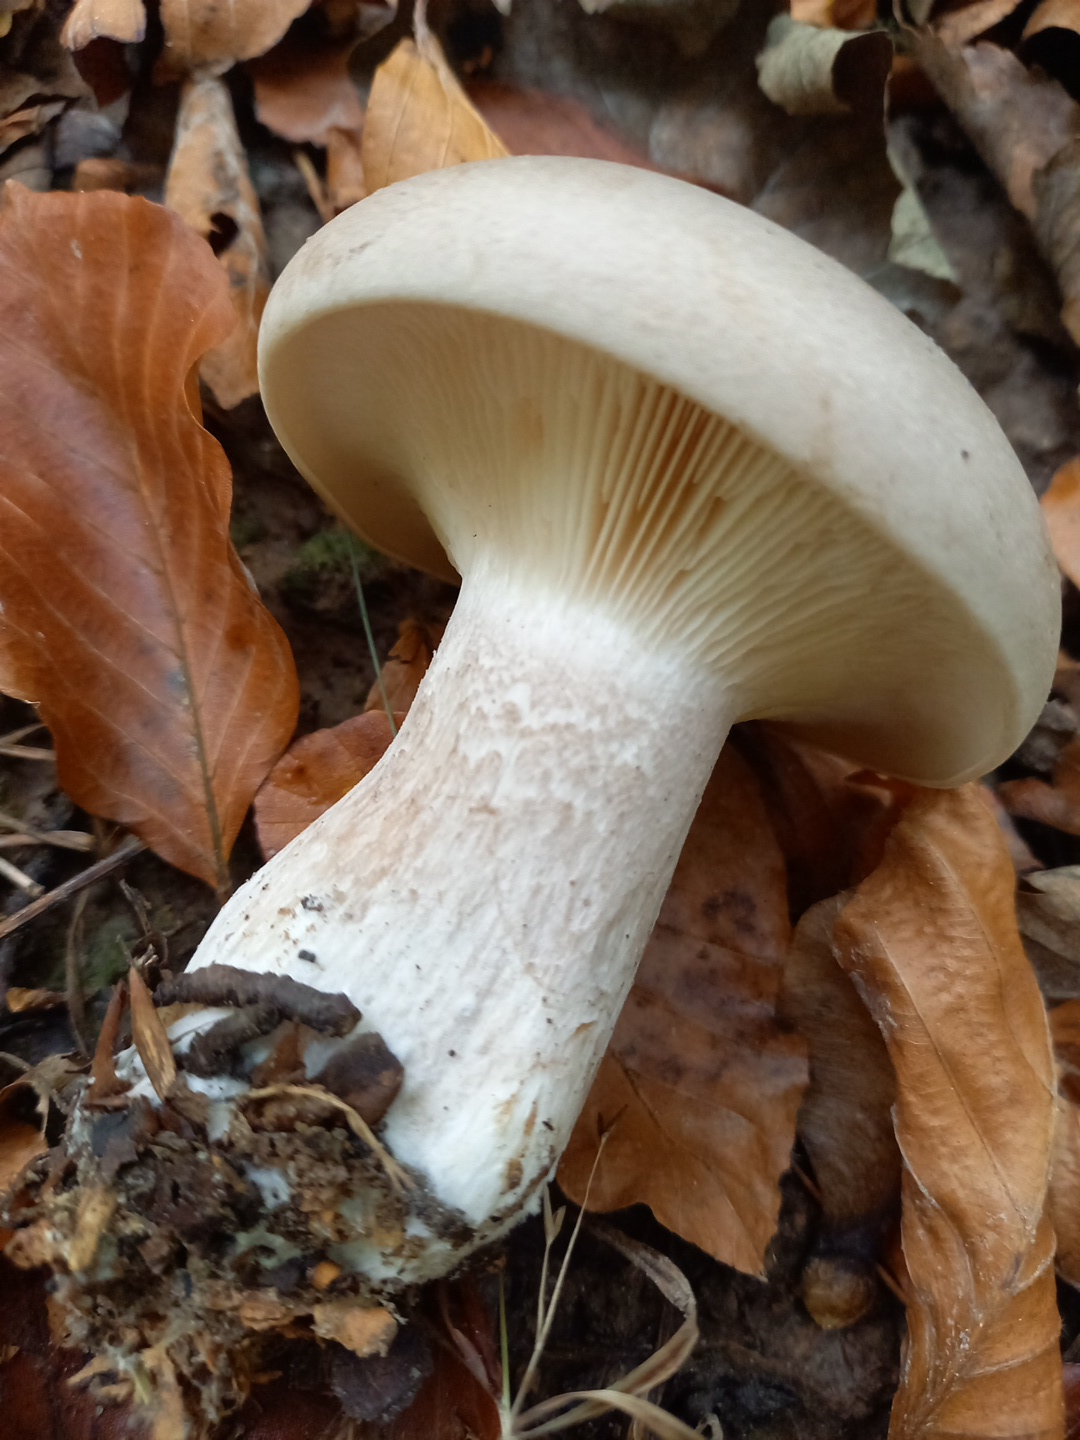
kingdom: Fungi
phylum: Basidiomycota
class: Agaricomycetes
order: Agaricales
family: Tricholomataceae
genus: Clitocybe
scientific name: Clitocybe nebularis
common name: tåge-tragthat
